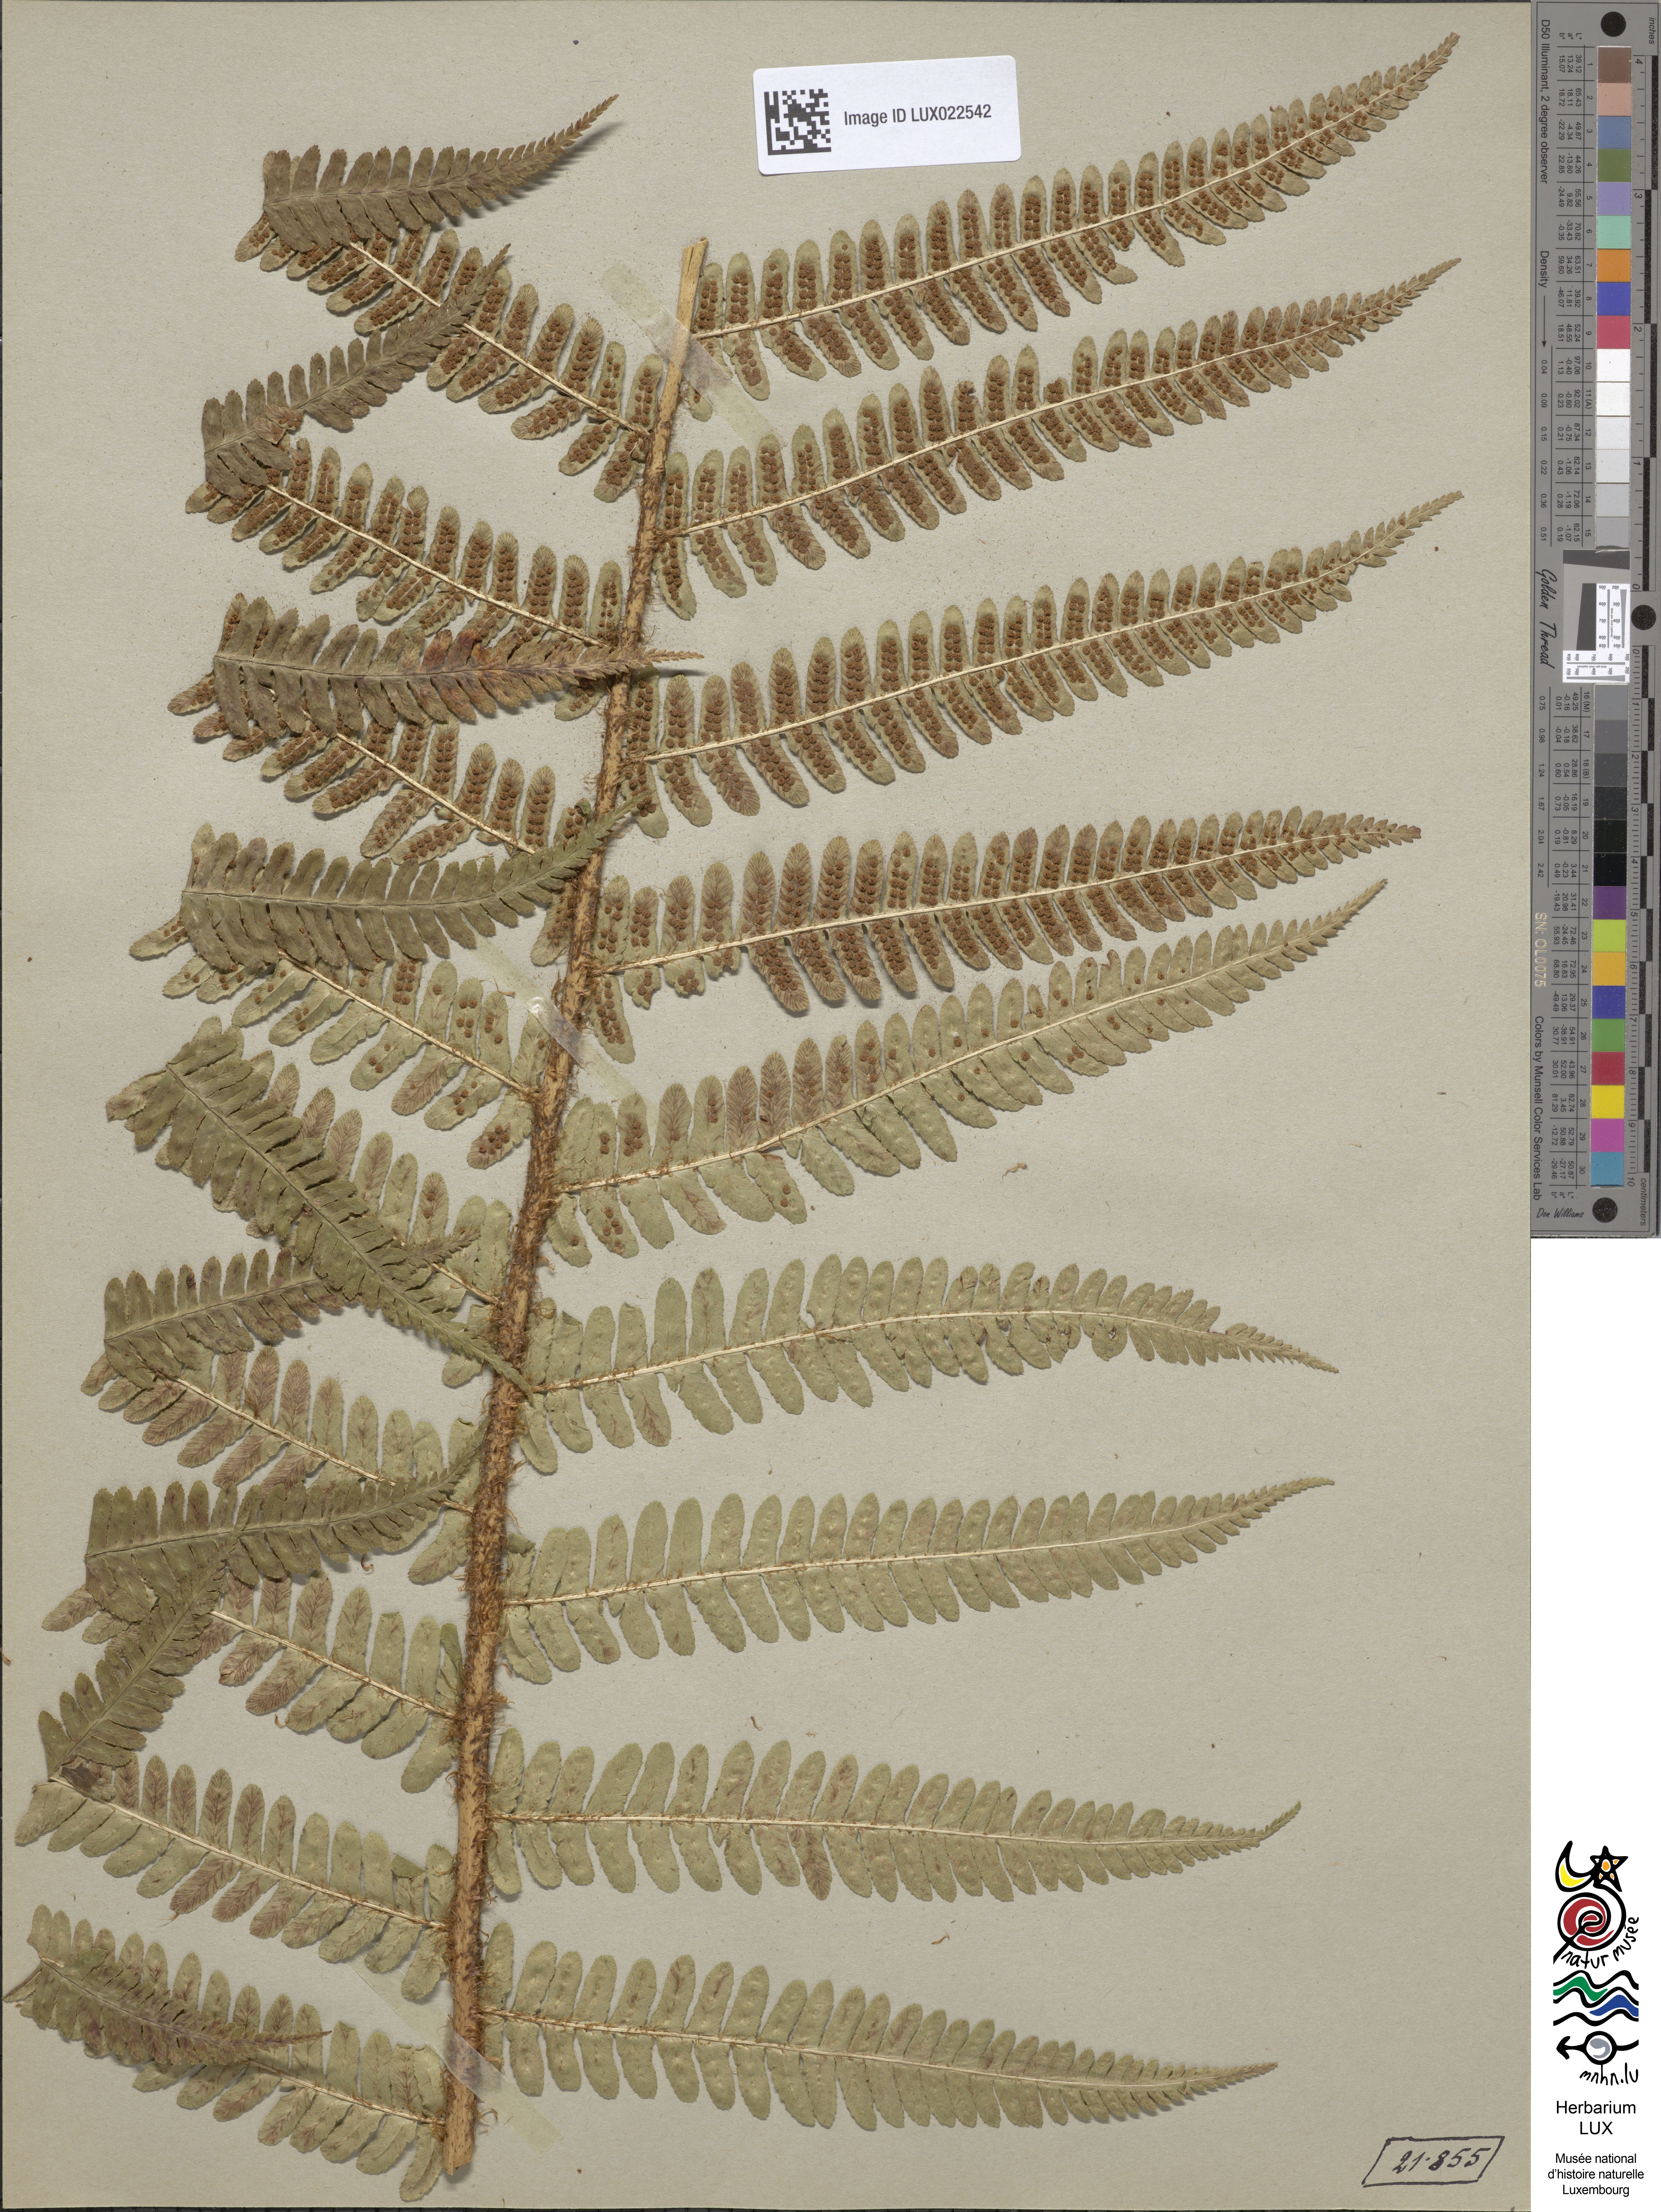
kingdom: Plantae
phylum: Tracheophyta
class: Polypodiopsida
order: Polypodiales
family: Dryopteridaceae
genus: Dryopteris
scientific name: Dryopteris borreri
